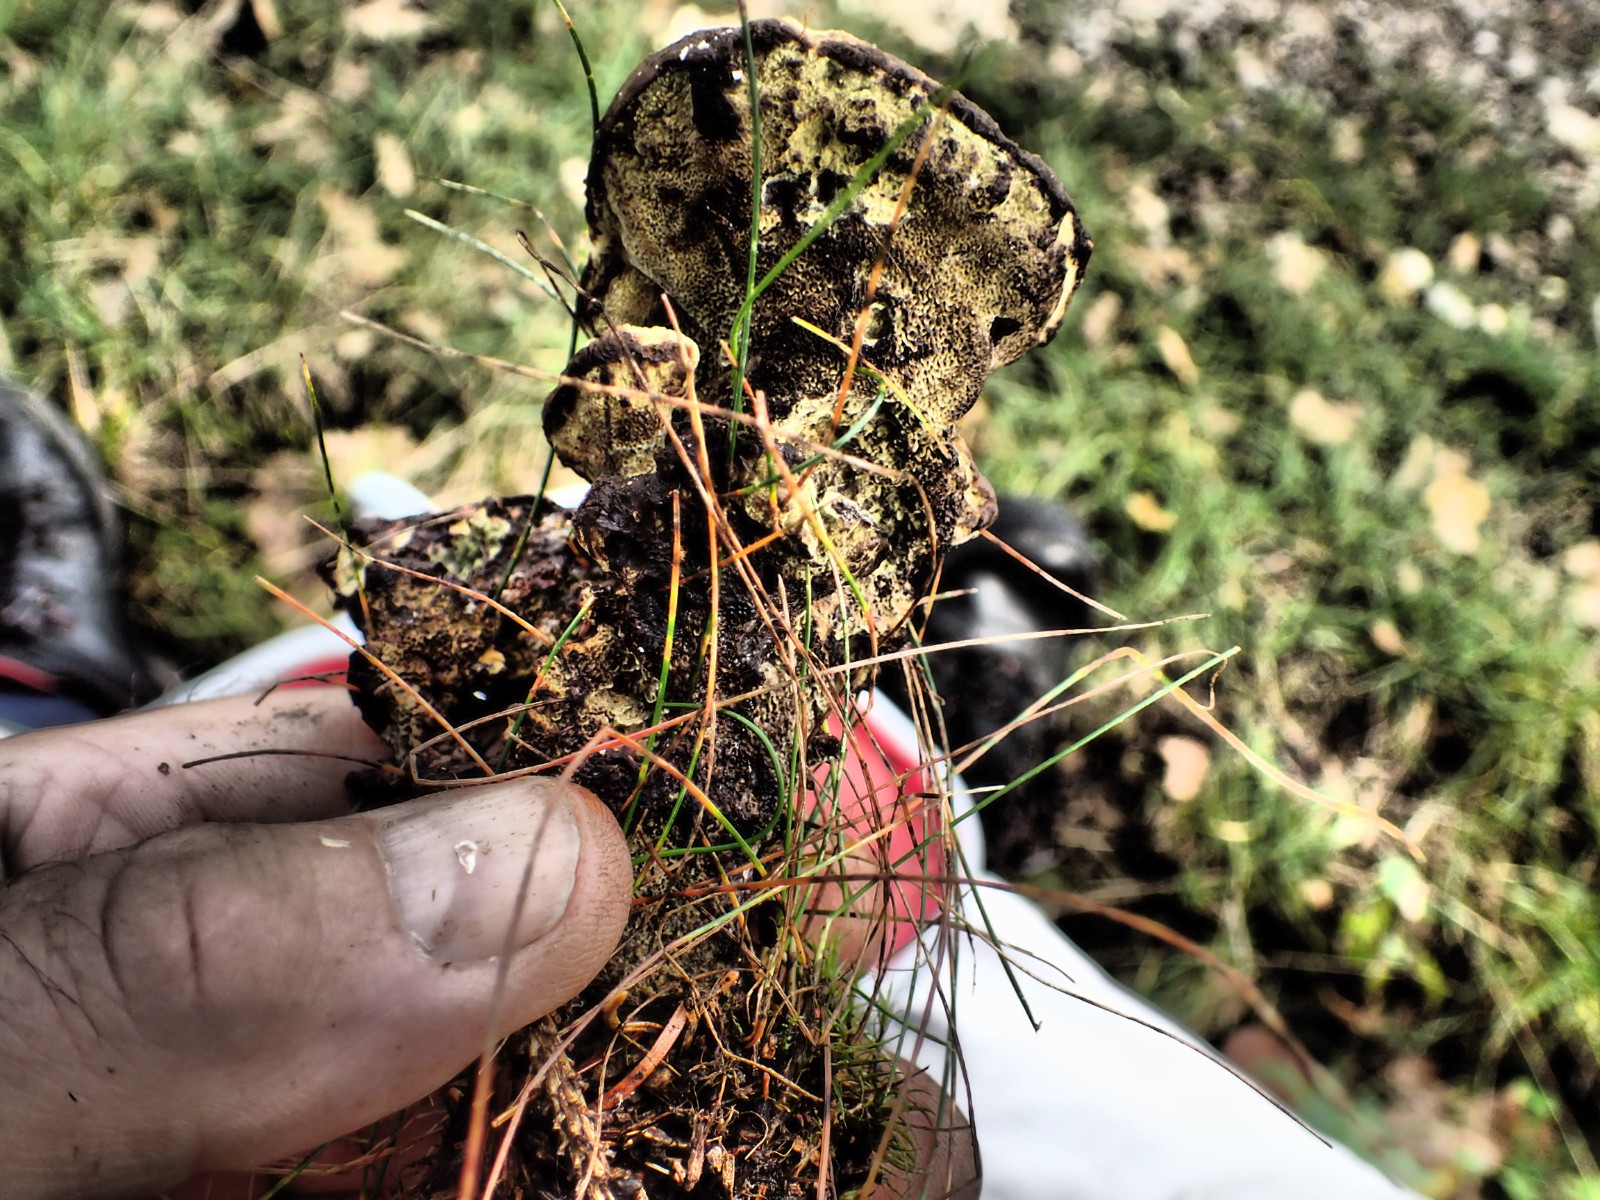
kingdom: Fungi
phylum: Basidiomycota
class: Agaricomycetes
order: Polyporales
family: Laetiporaceae
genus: Phaeolus
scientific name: Phaeolus schweinitzii
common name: brunporesvamp
